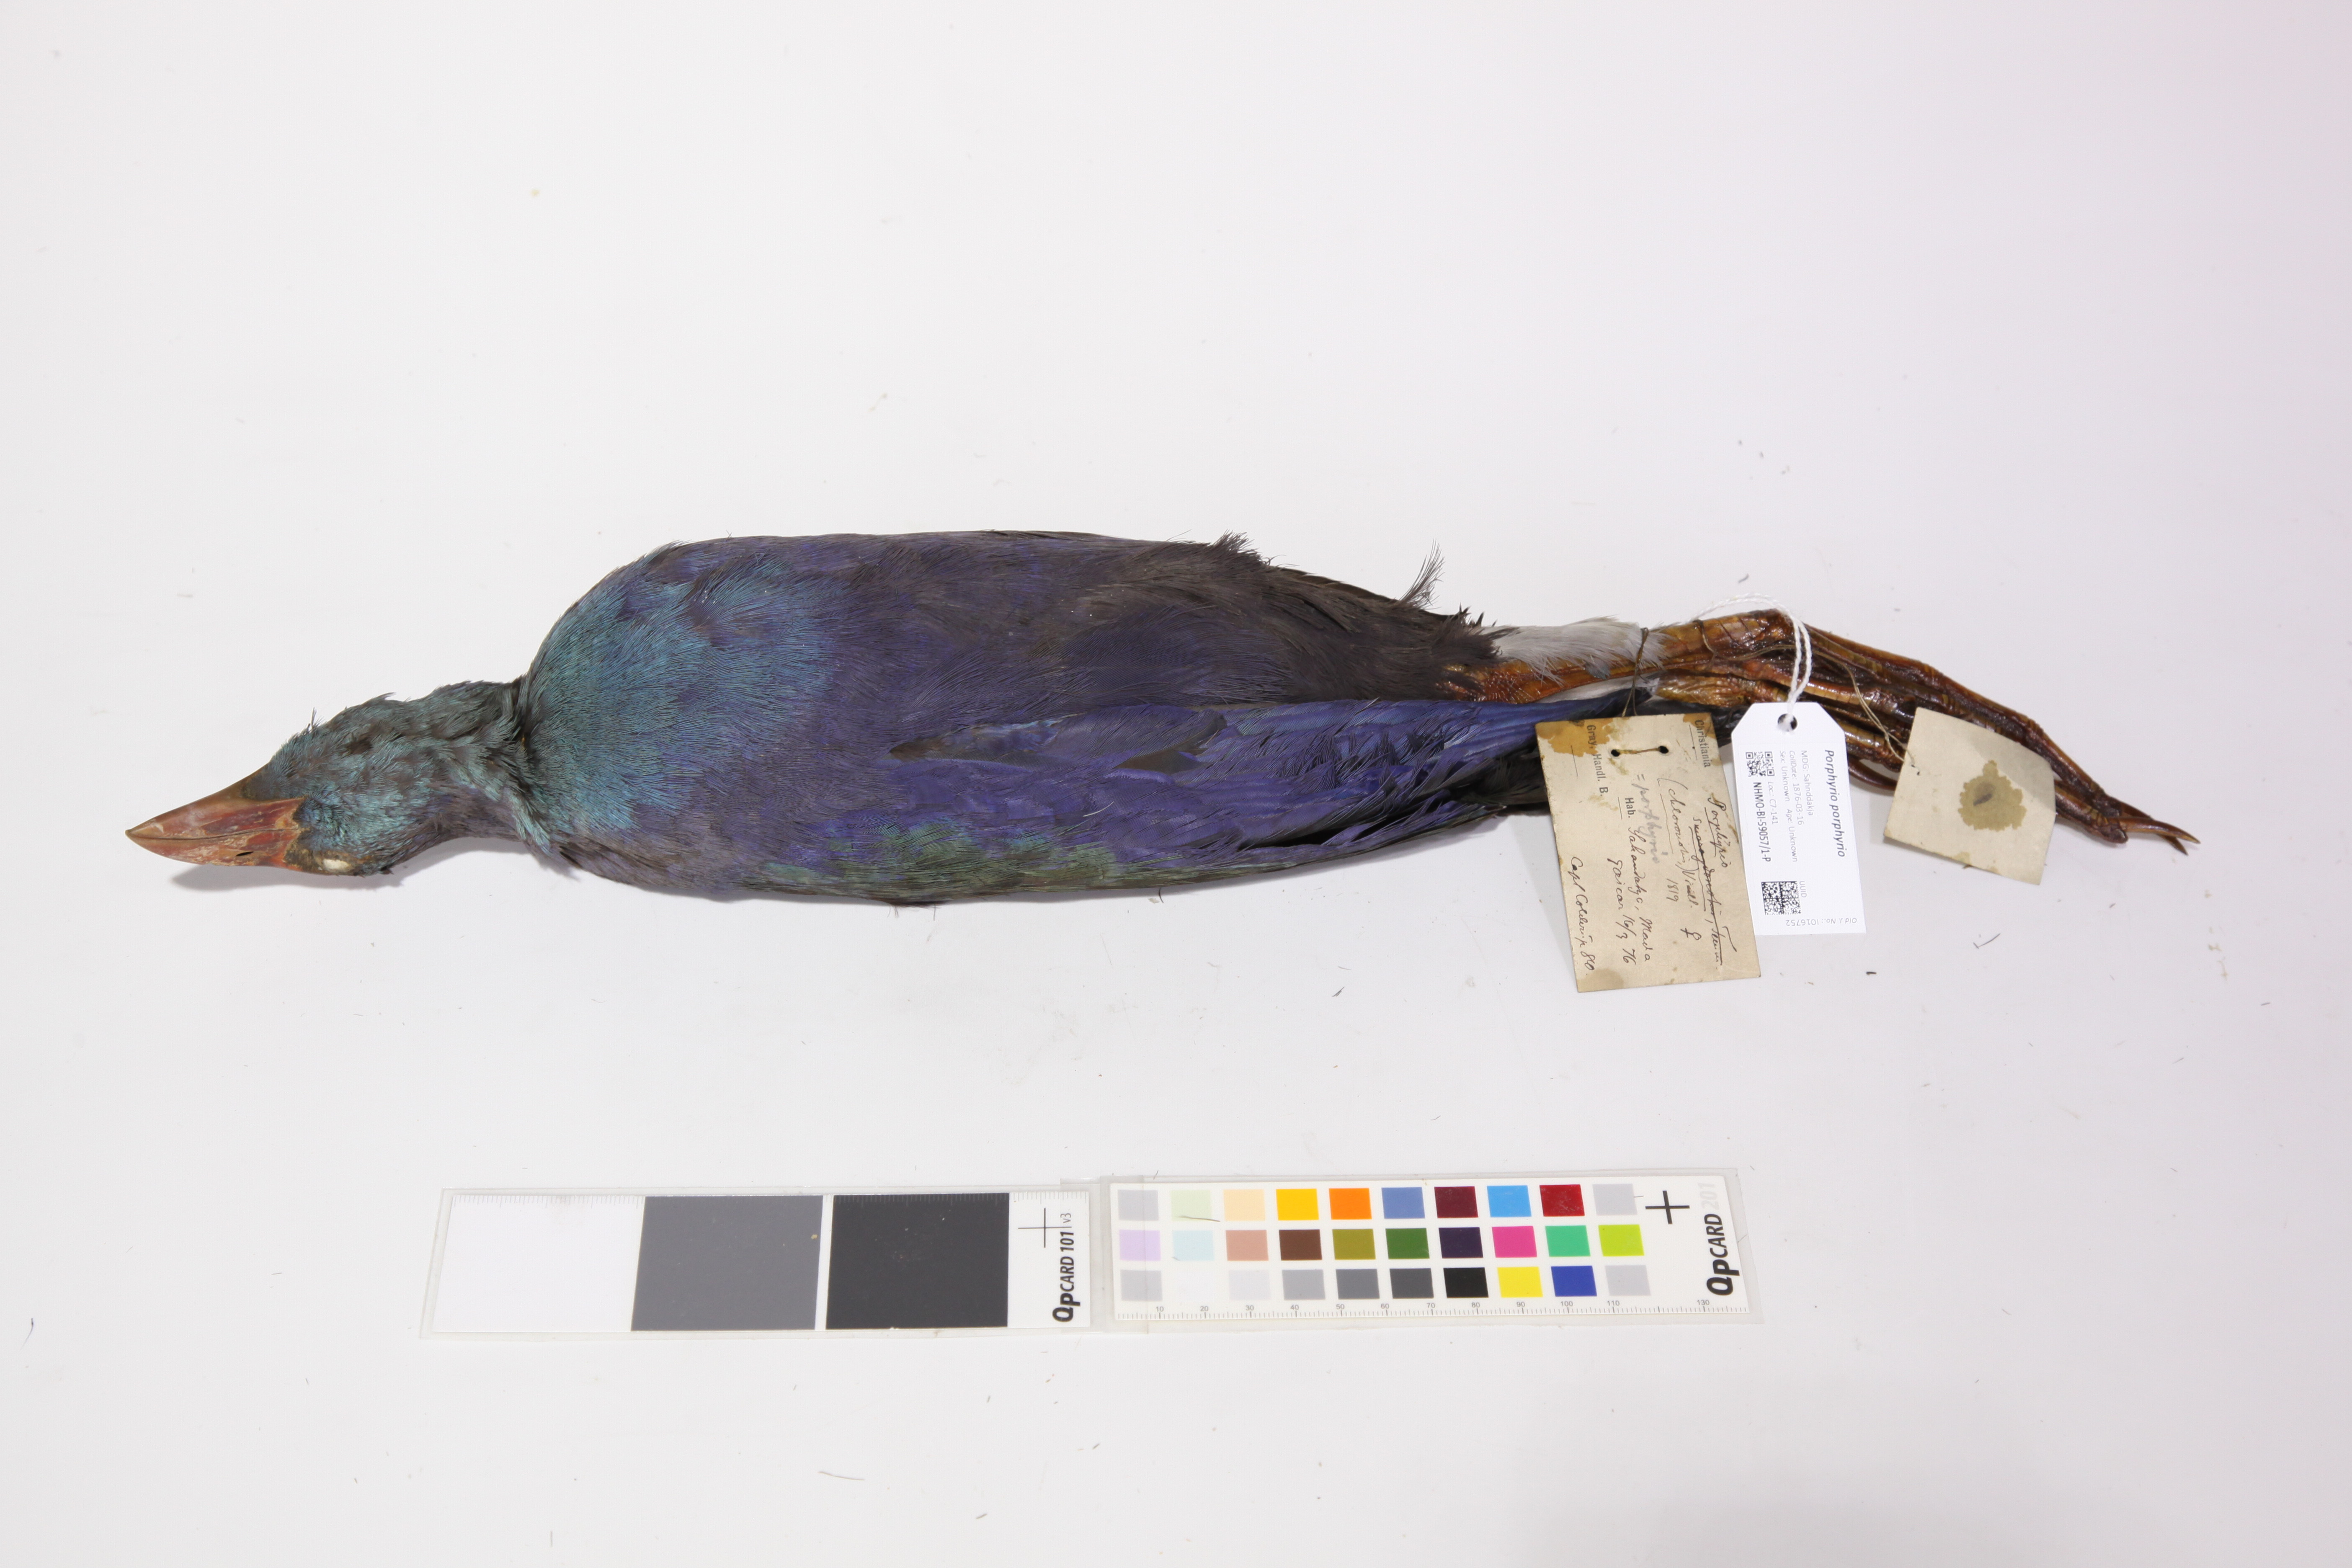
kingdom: Animalia
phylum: Chordata
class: Aves
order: Gruiformes
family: Rallidae
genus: Porphyrio
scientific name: Porphyrio porphyrio
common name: Purple swamphen
